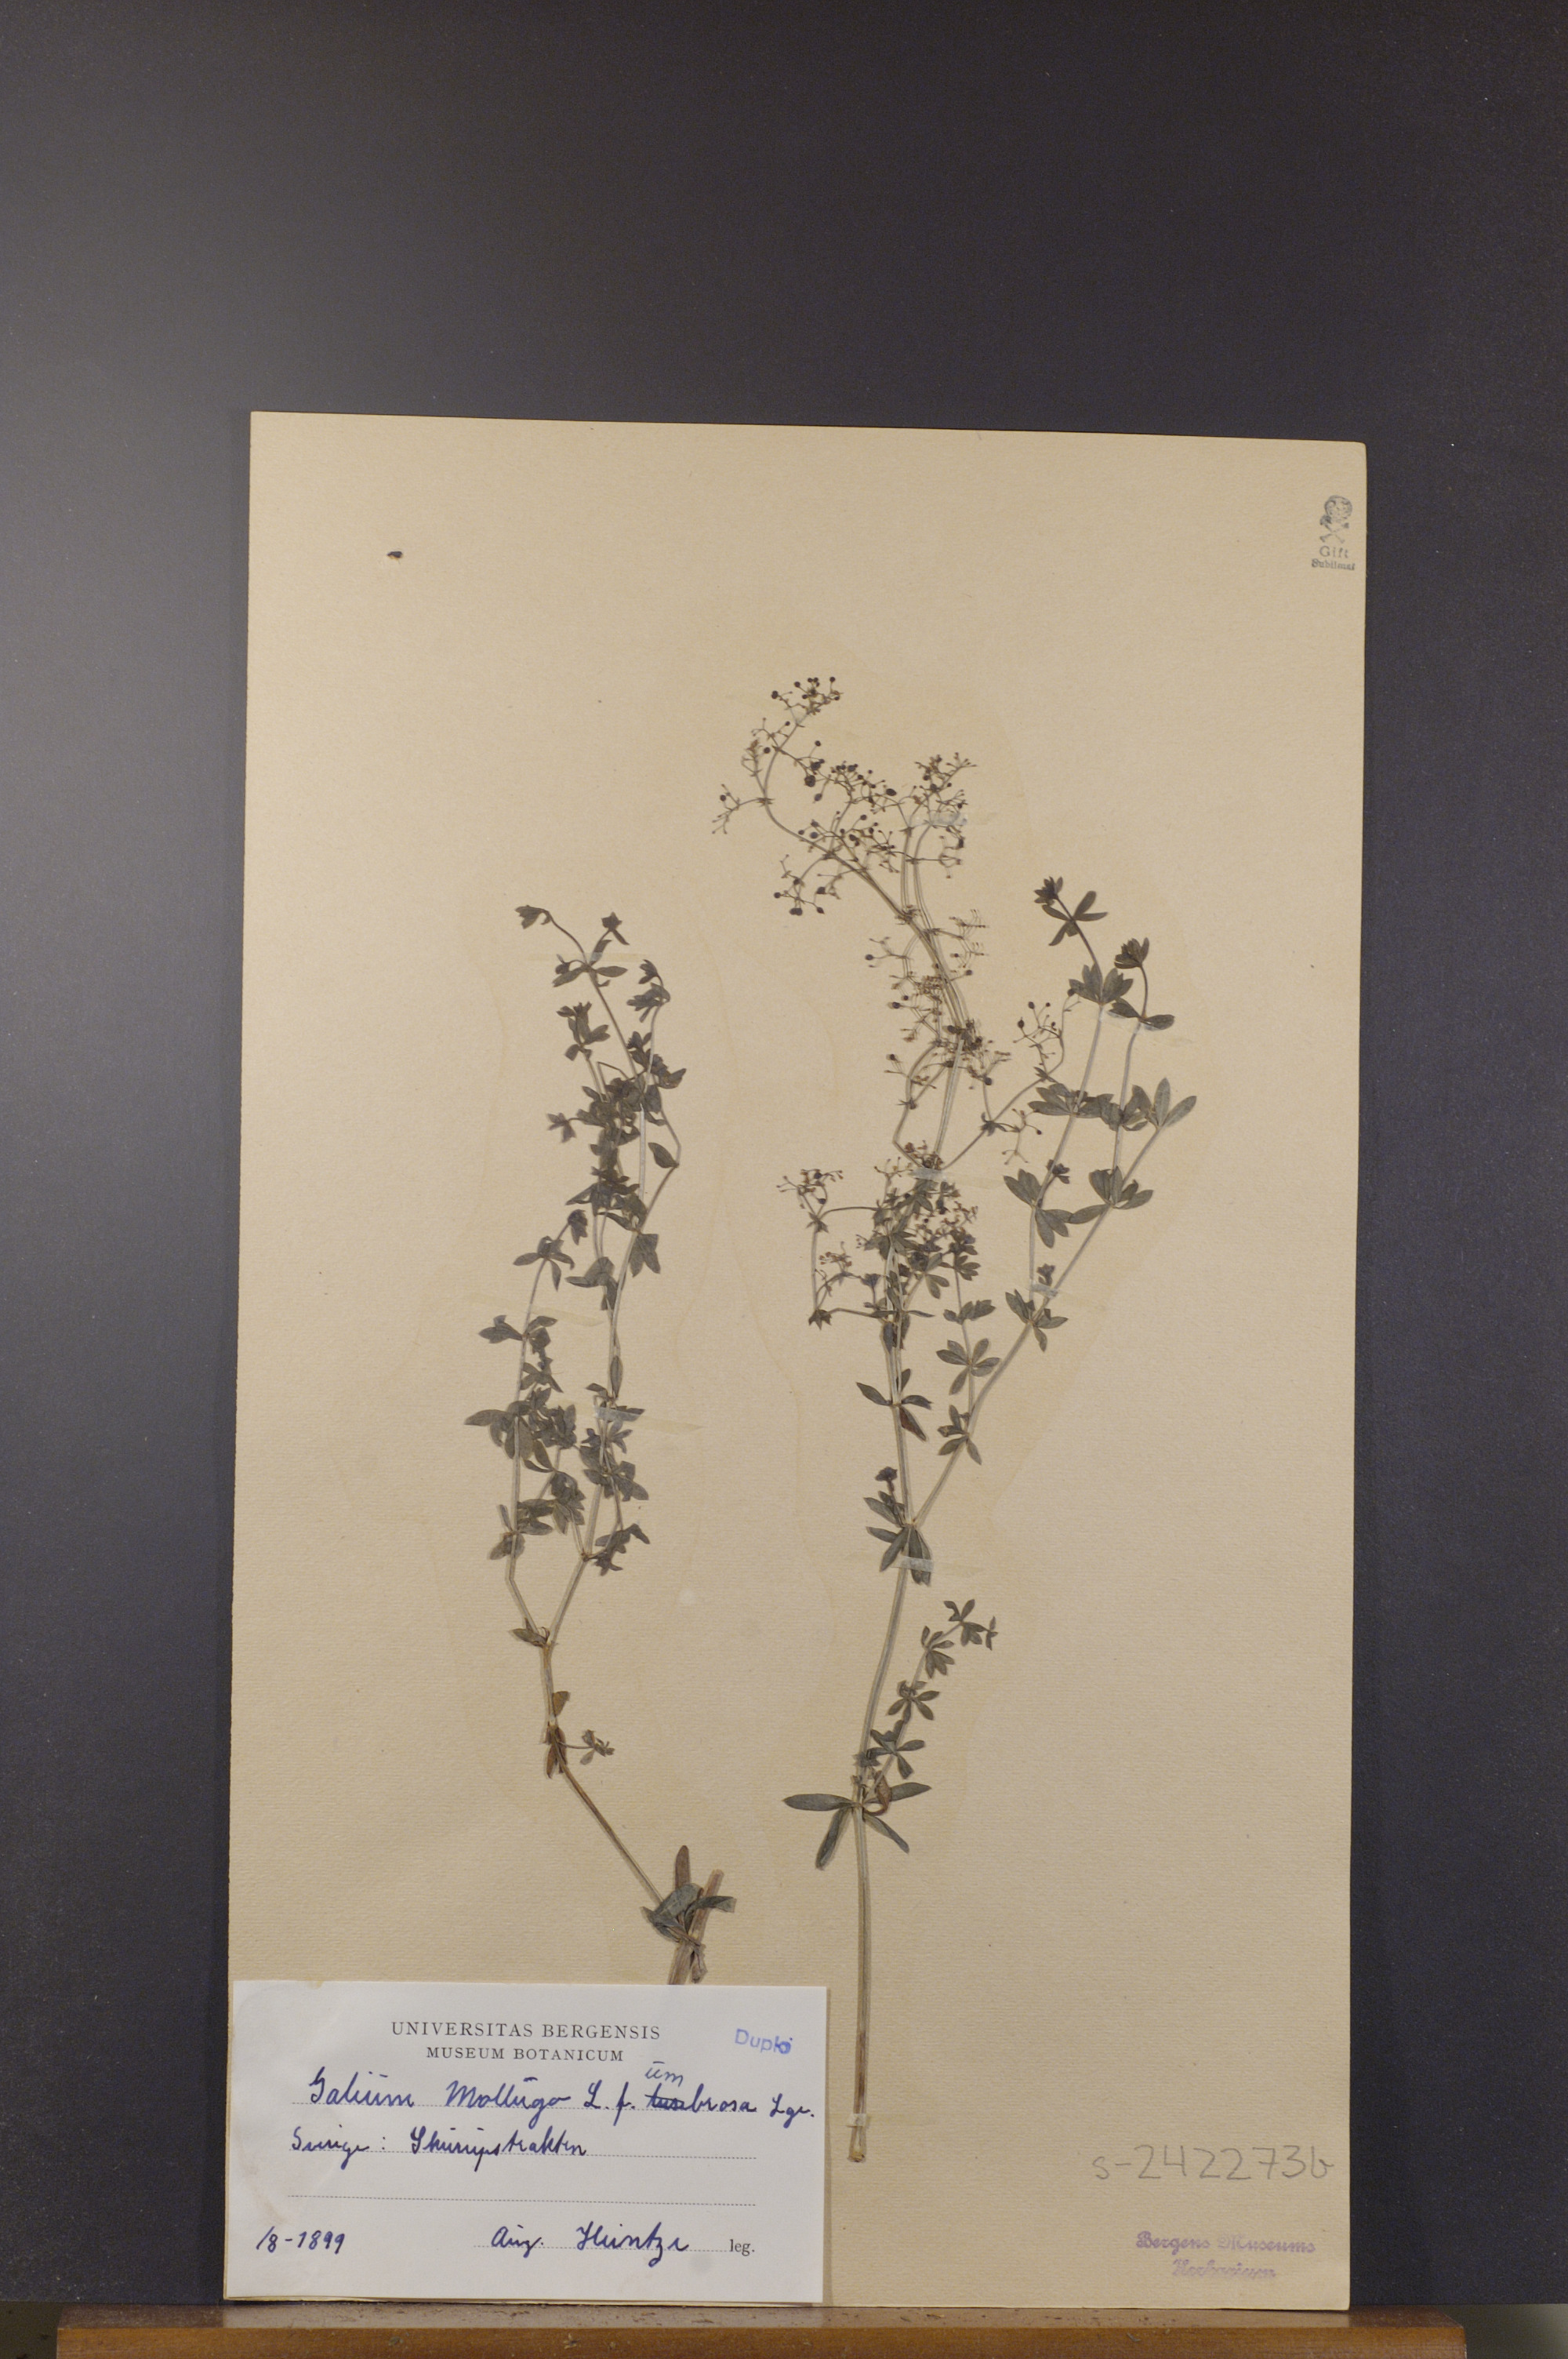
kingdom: Plantae
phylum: Tracheophyta
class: Magnoliopsida
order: Gentianales
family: Rubiaceae
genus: Galium
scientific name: Galium mollugo
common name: Hedge bedstraw
